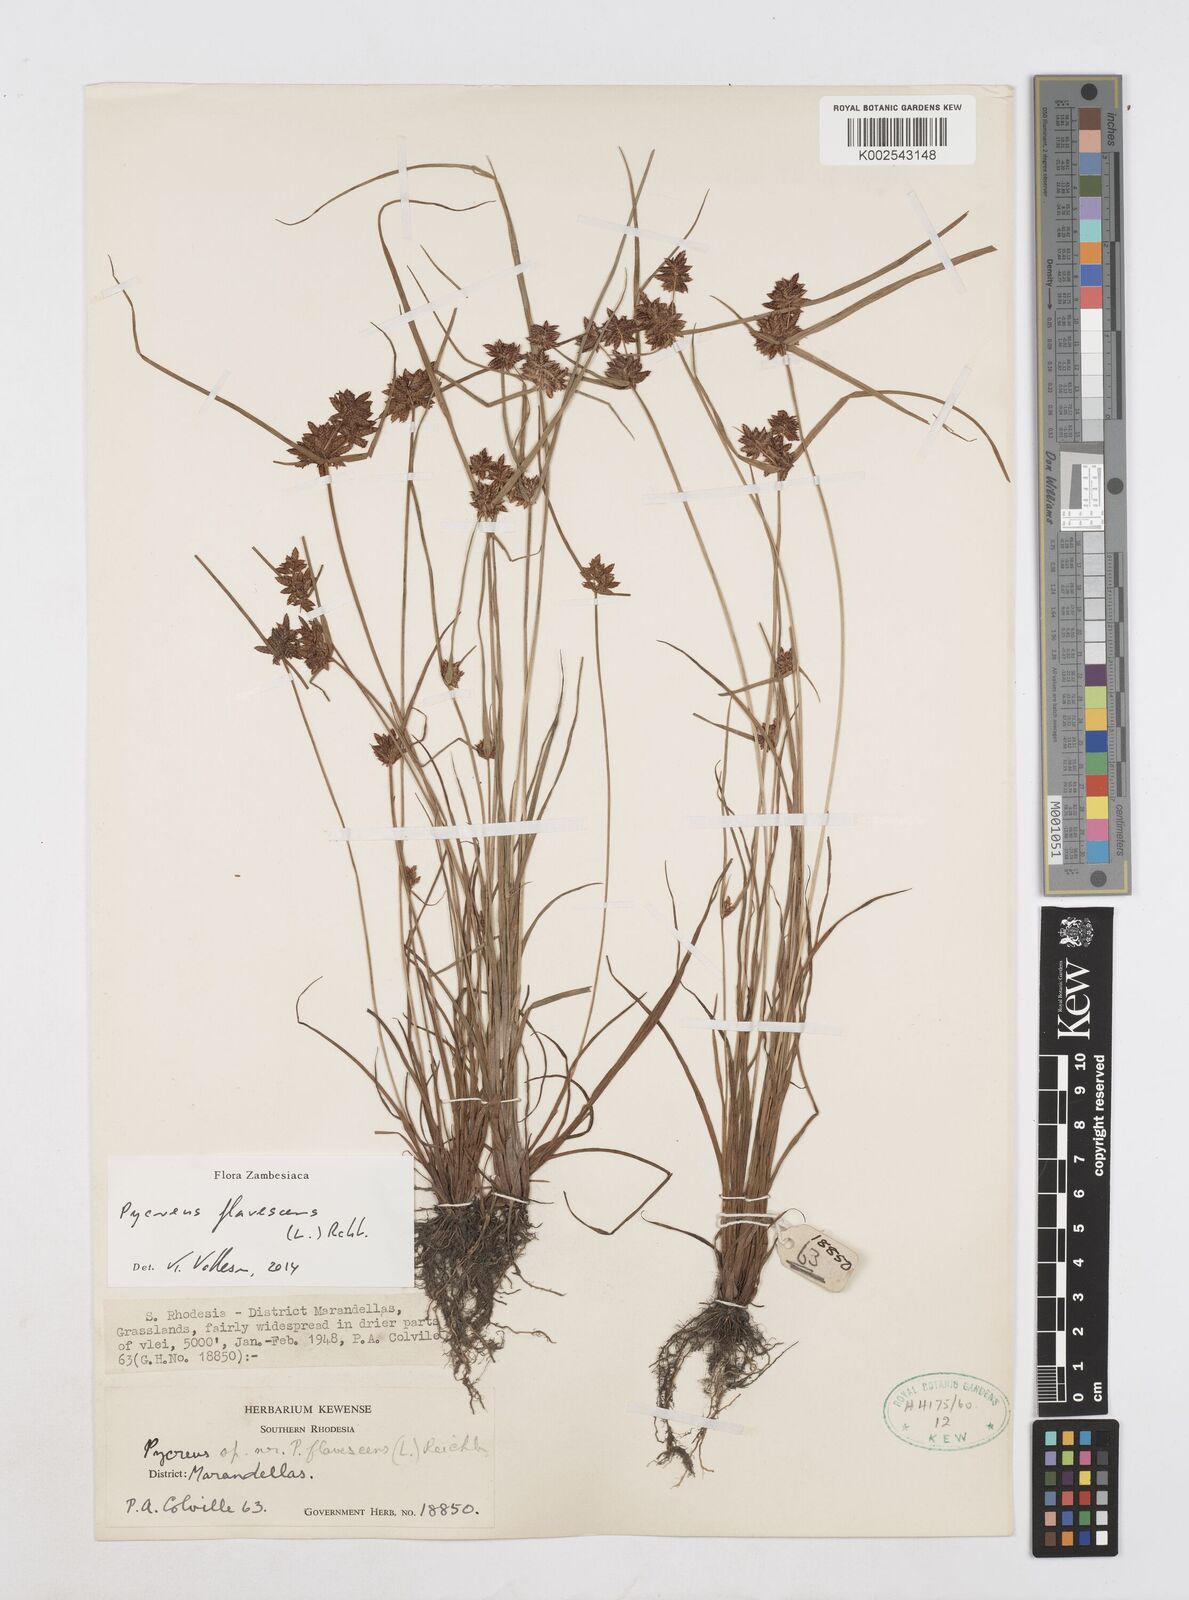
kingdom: Plantae
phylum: Tracheophyta
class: Liliopsida
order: Poales
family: Cyperaceae
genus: Cyperus
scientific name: Cyperus flavescens
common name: Yellow galingale
